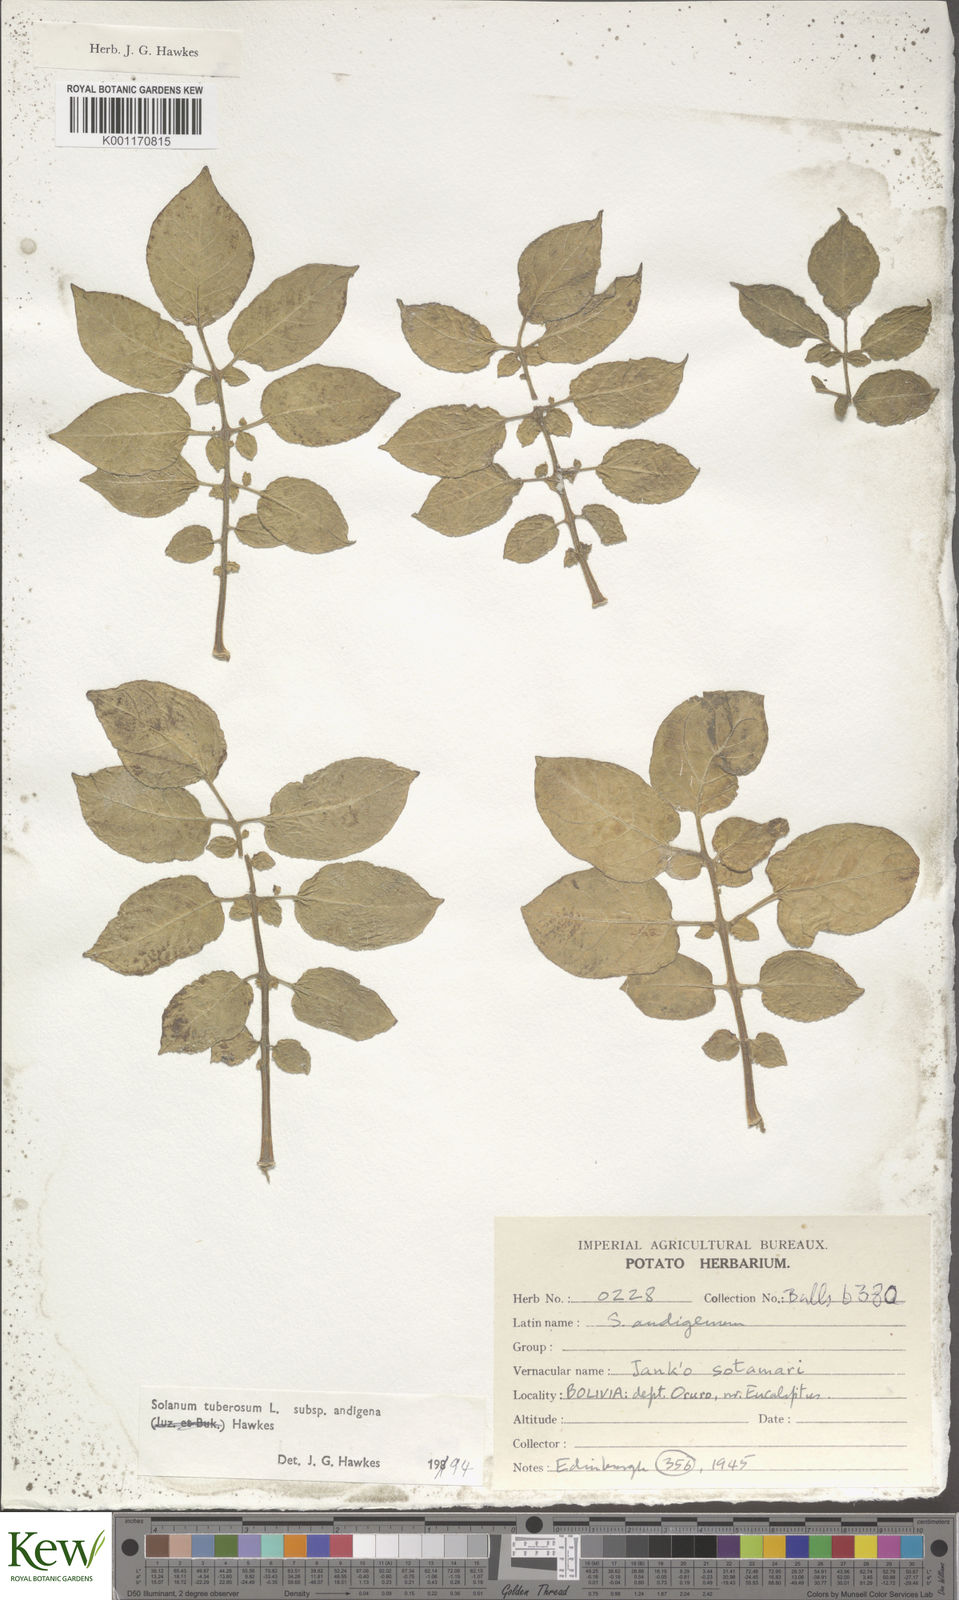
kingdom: Plantae
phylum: Tracheophyta
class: Magnoliopsida
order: Solanales
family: Solanaceae
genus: Solanum
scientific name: Solanum tuberosum
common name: Potato
